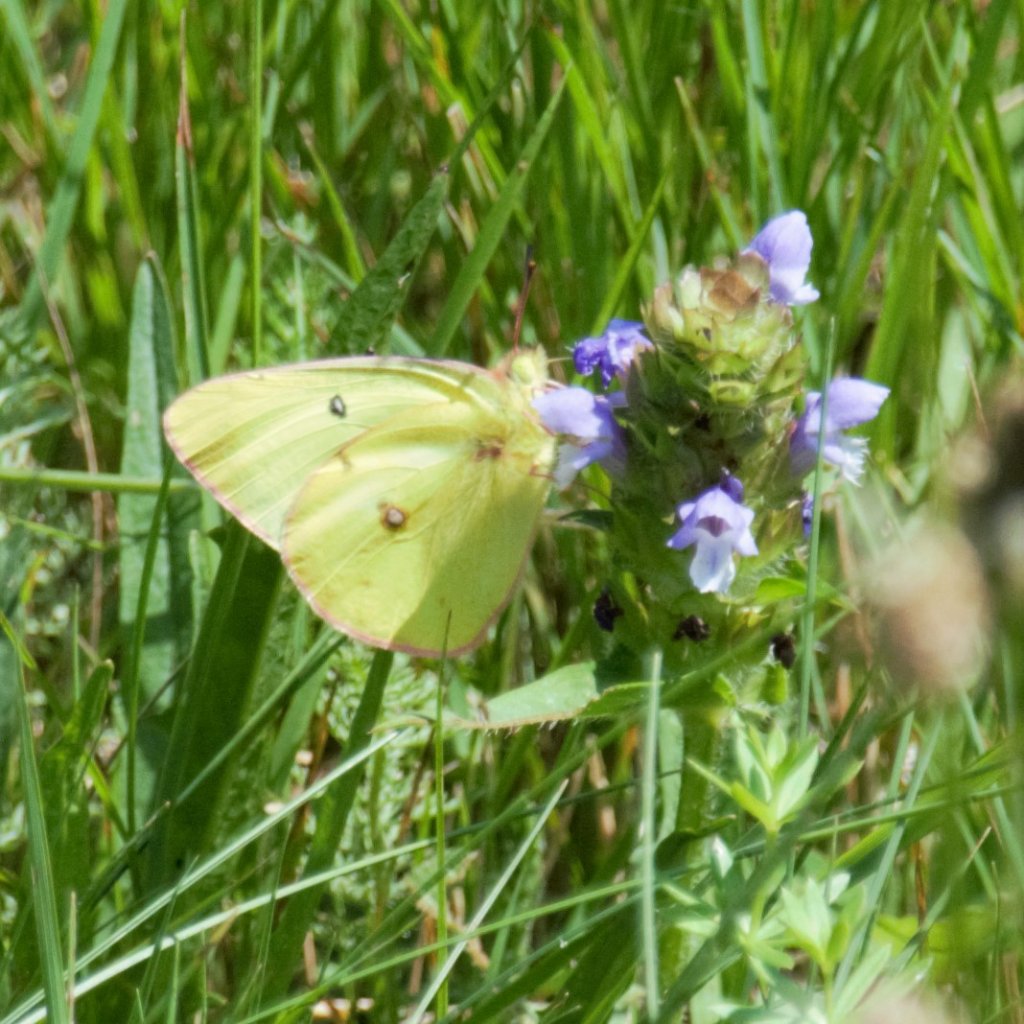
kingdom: Animalia
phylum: Arthropoda
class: Insecta
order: Lepidoptera
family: Pieridae
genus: Colias
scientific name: Colias philodice
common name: Clouded Sulphur
